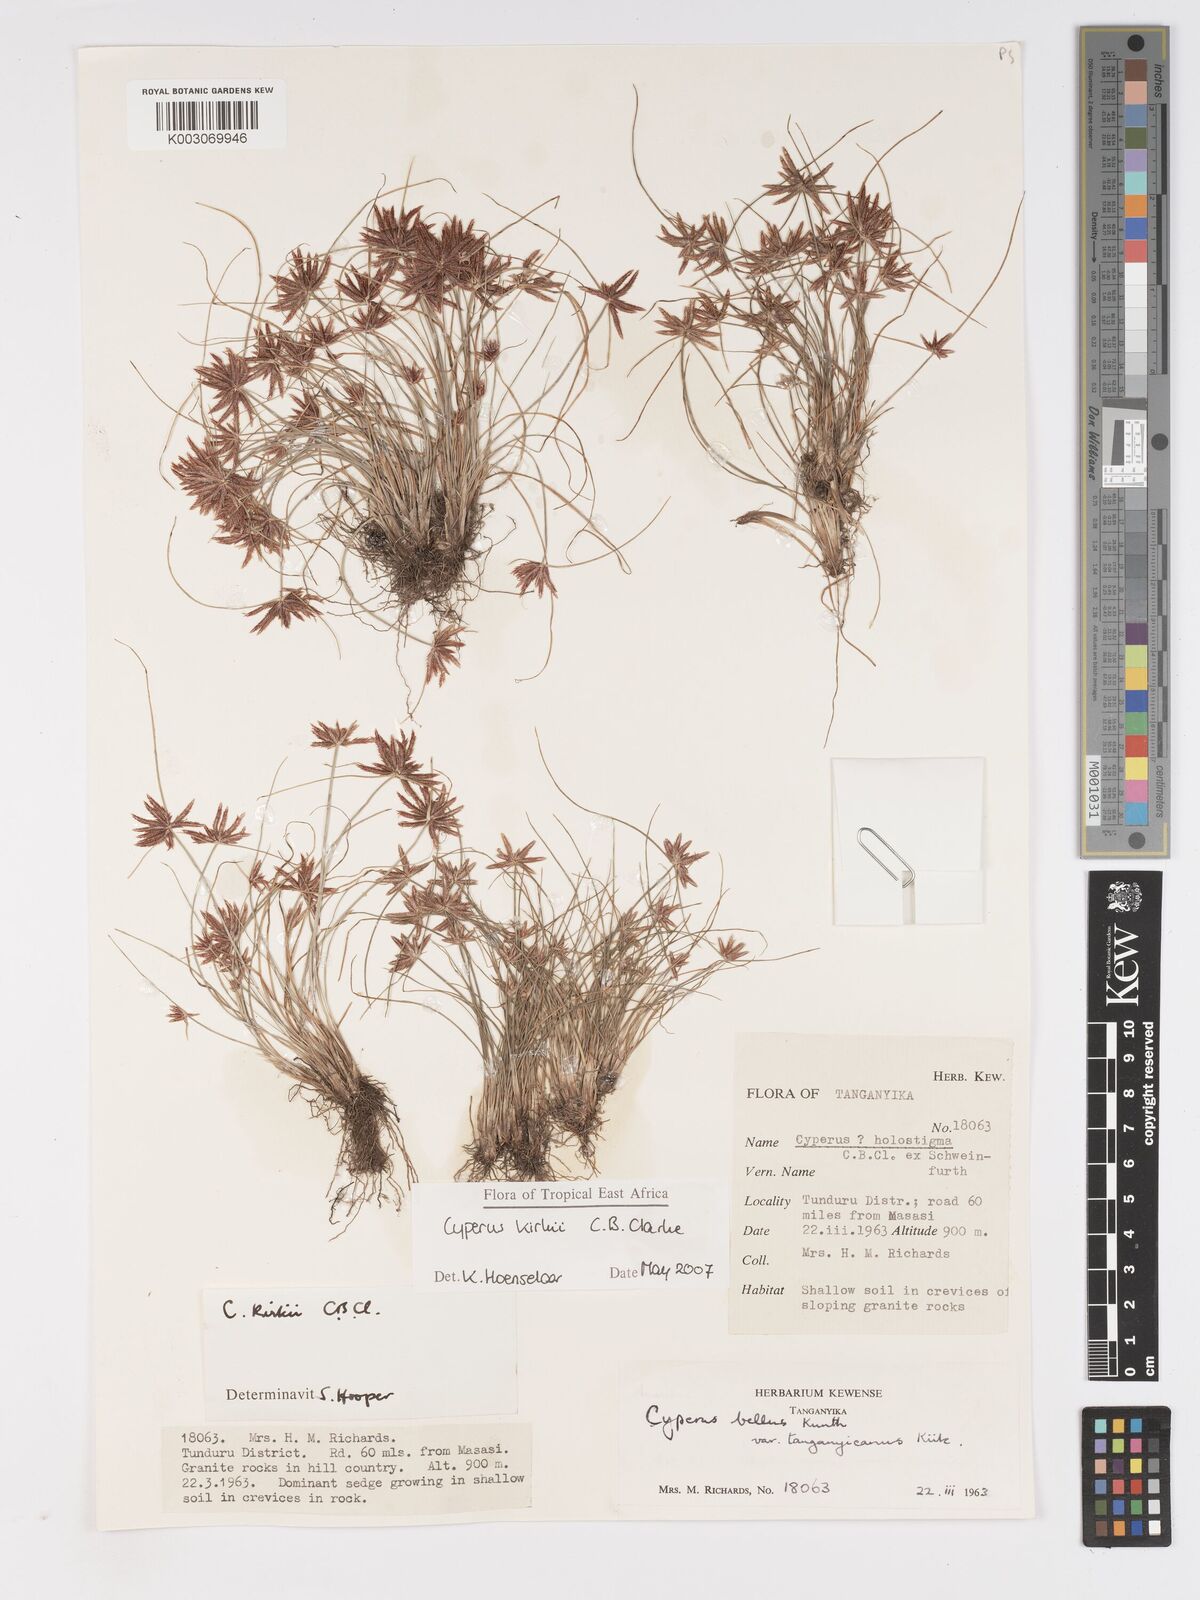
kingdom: Plantae
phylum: Tracheophyta
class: Liliopsida
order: Poales
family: Cyperaceae
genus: Cyperus
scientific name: Cyperus semitrifidus
